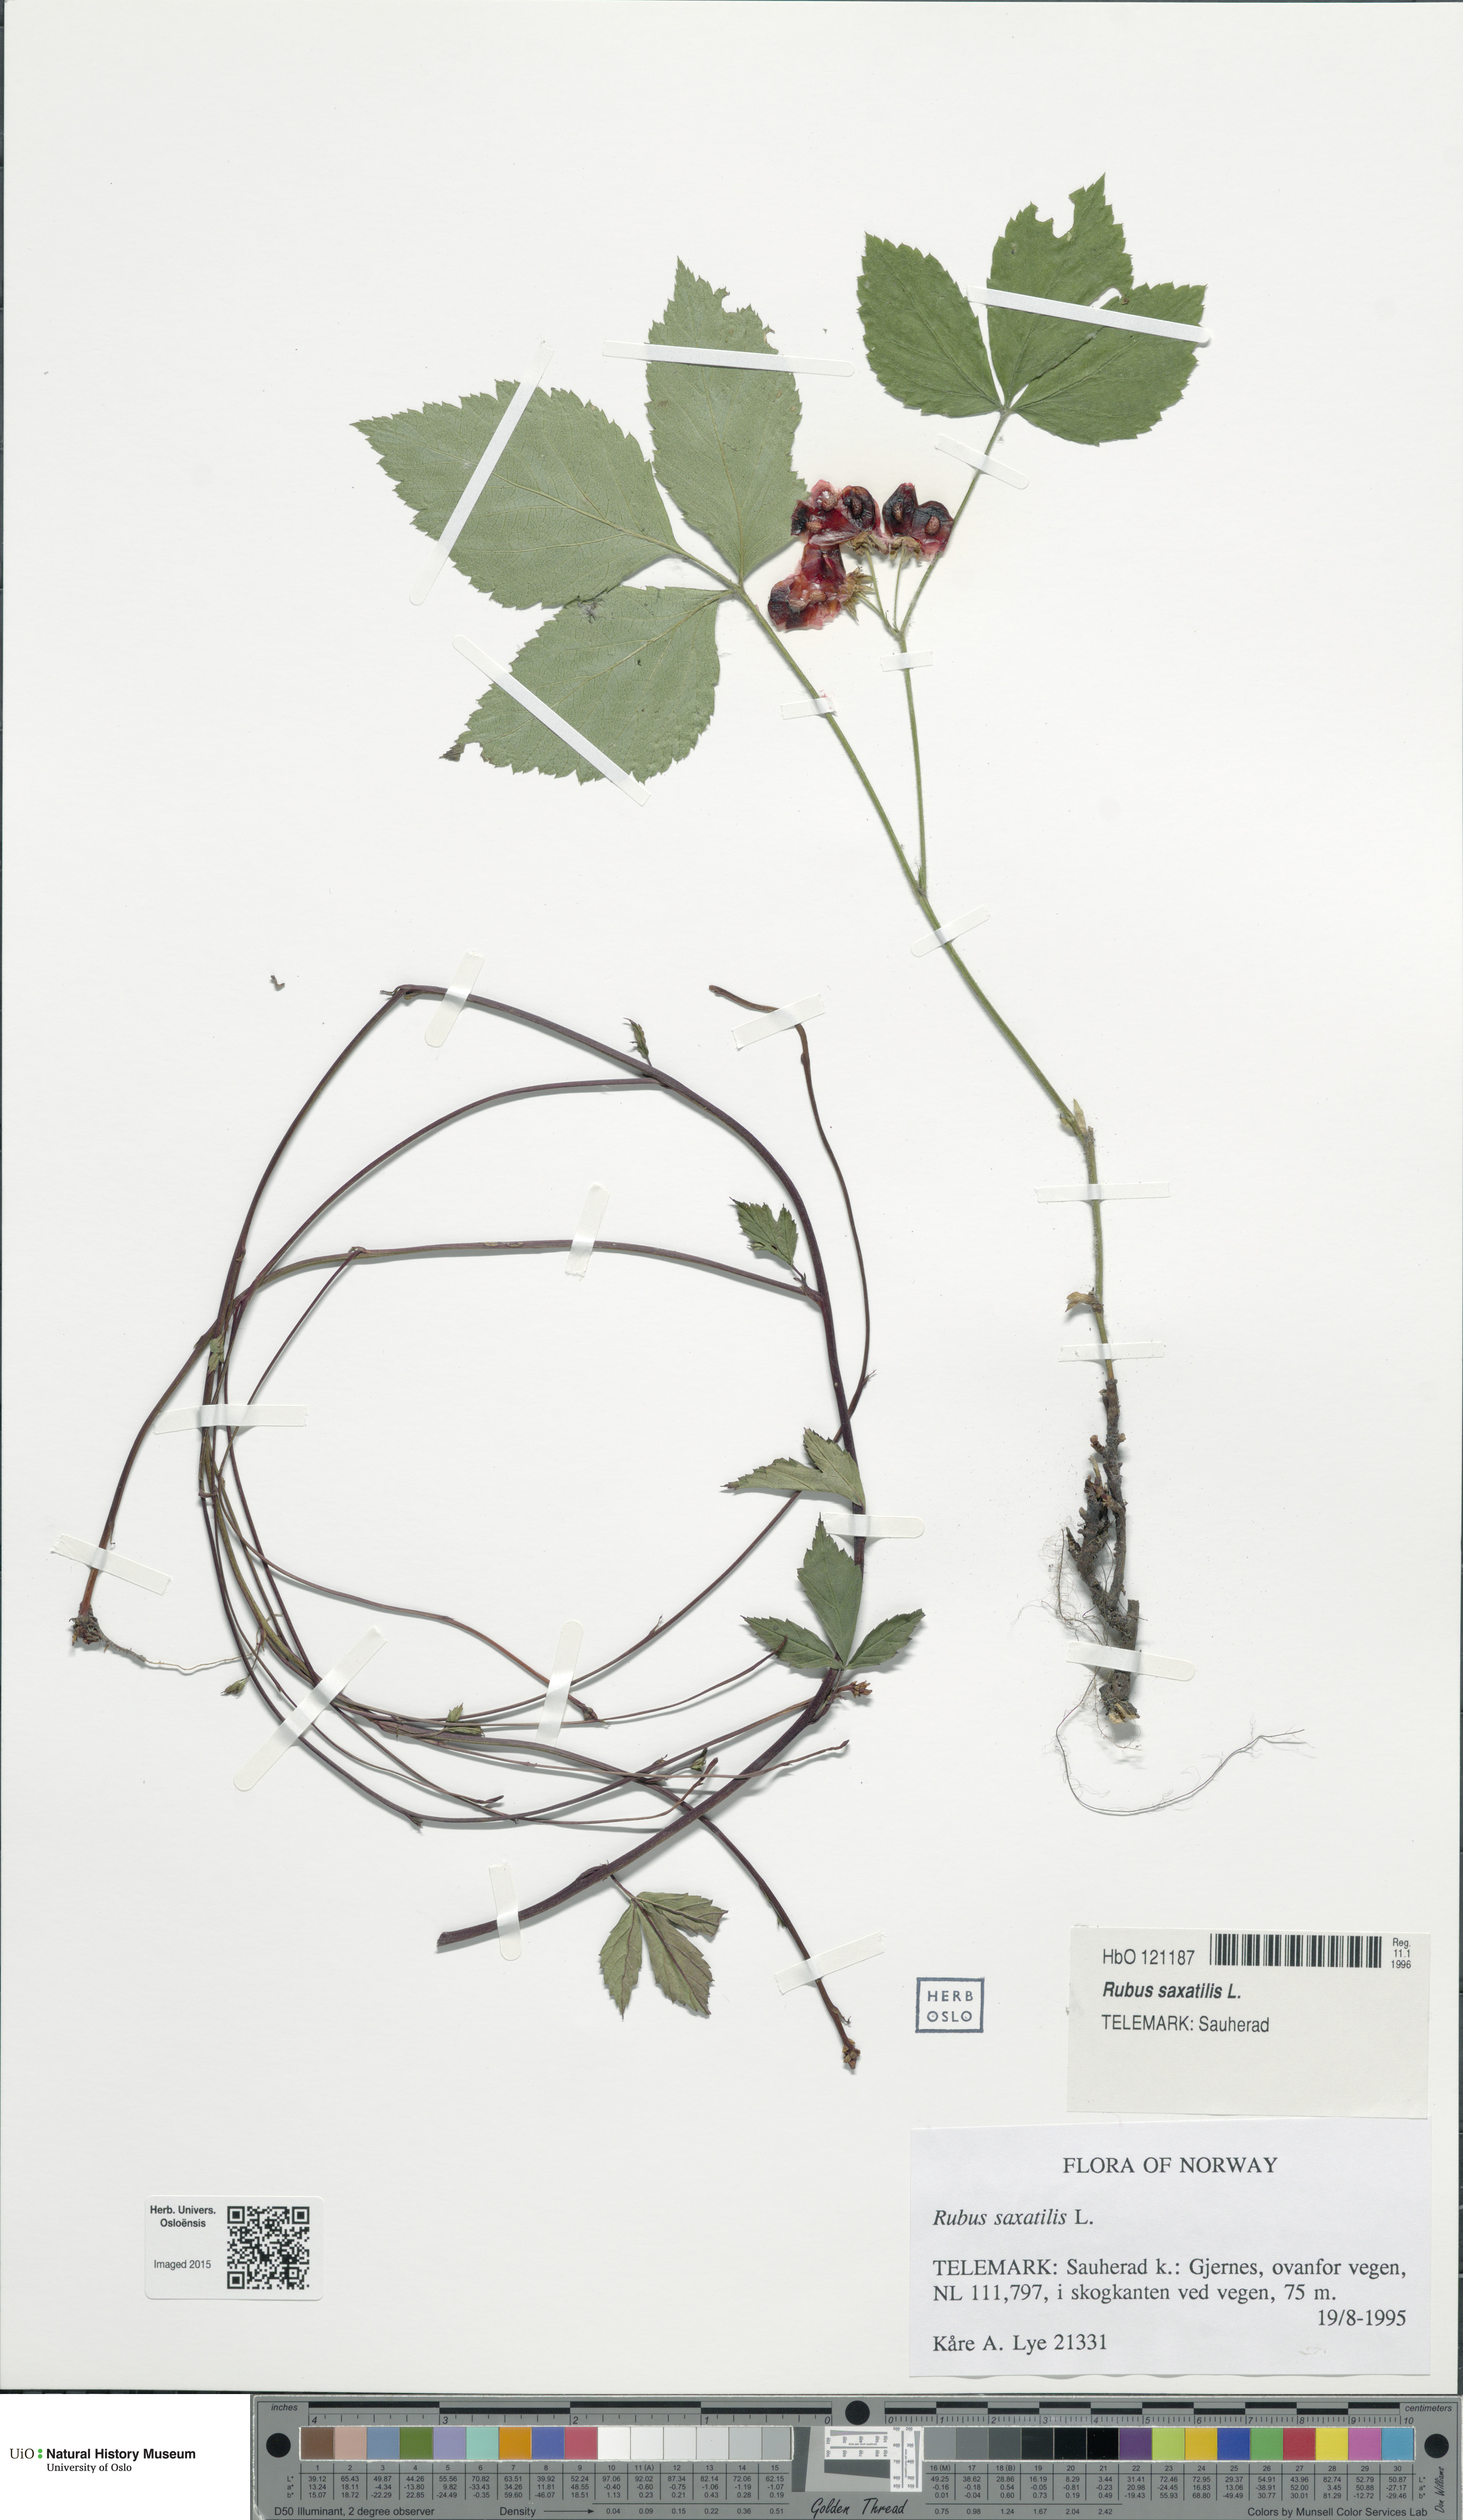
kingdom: Plantae
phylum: Tracheophyta
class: Magnoliopsida
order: Rosales
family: Rosaceae
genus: Rubus
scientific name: Rubus saxatilis
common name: Stone bramble
